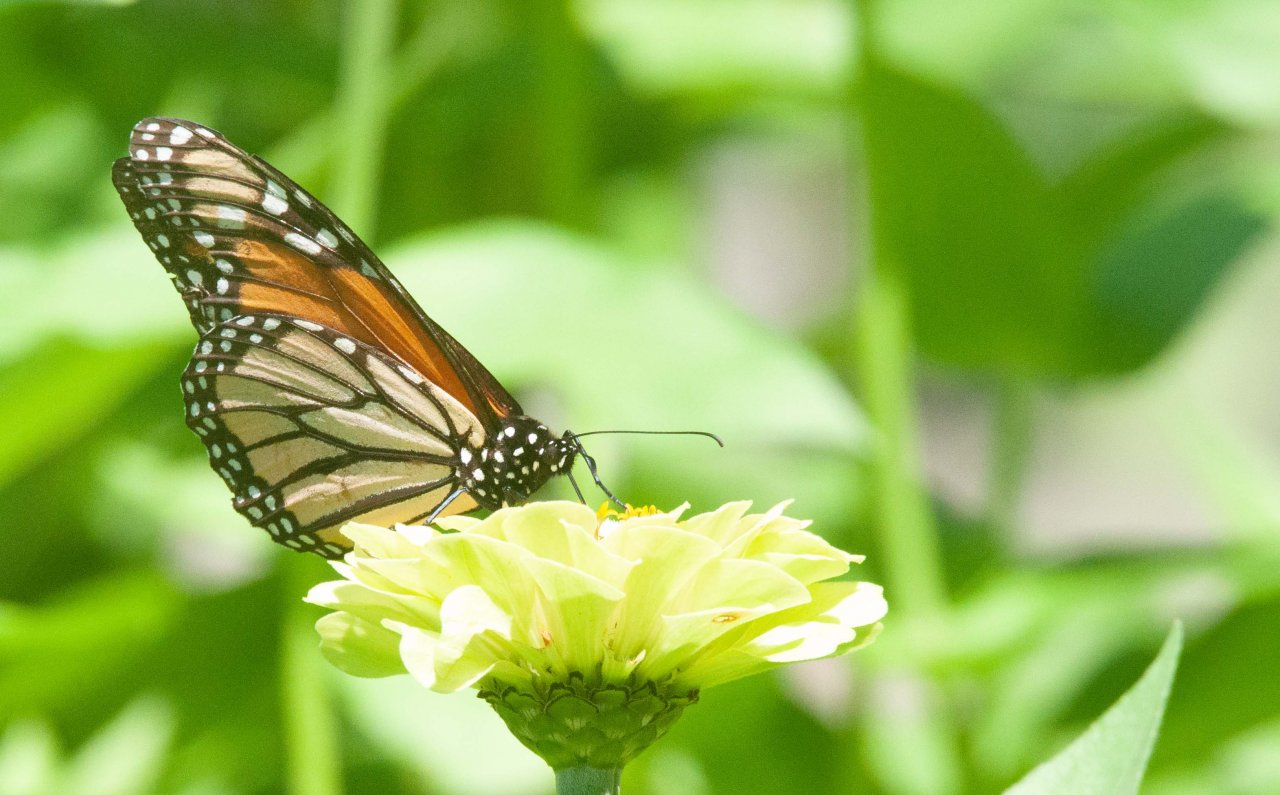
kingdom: Animalia
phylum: Arthropoda
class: Insecta
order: Lepidoptera
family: Nymphalidae
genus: Danaus
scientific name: Danaus plexippus
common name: Monarch
